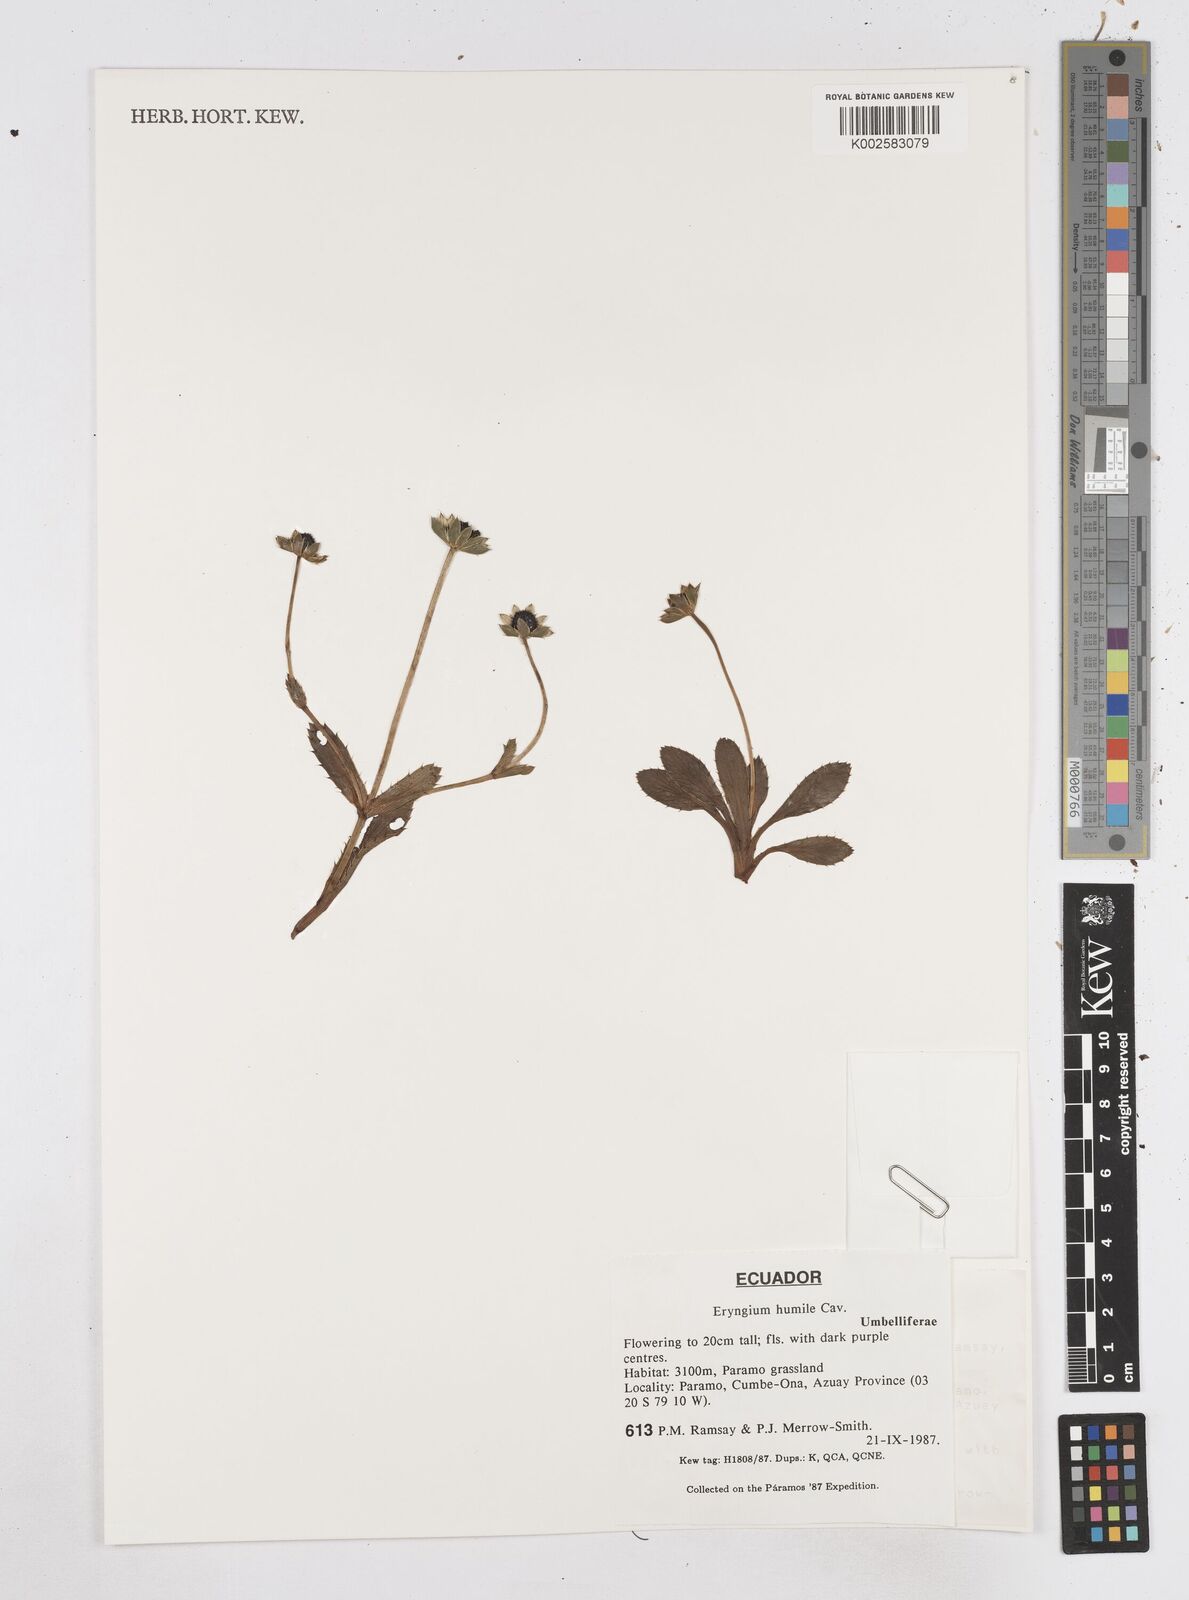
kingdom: Plantae
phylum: Tracheophyta
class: Magnoliopsida
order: Apiales
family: Apiaceae
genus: Eryngium
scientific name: Eryngium humile
